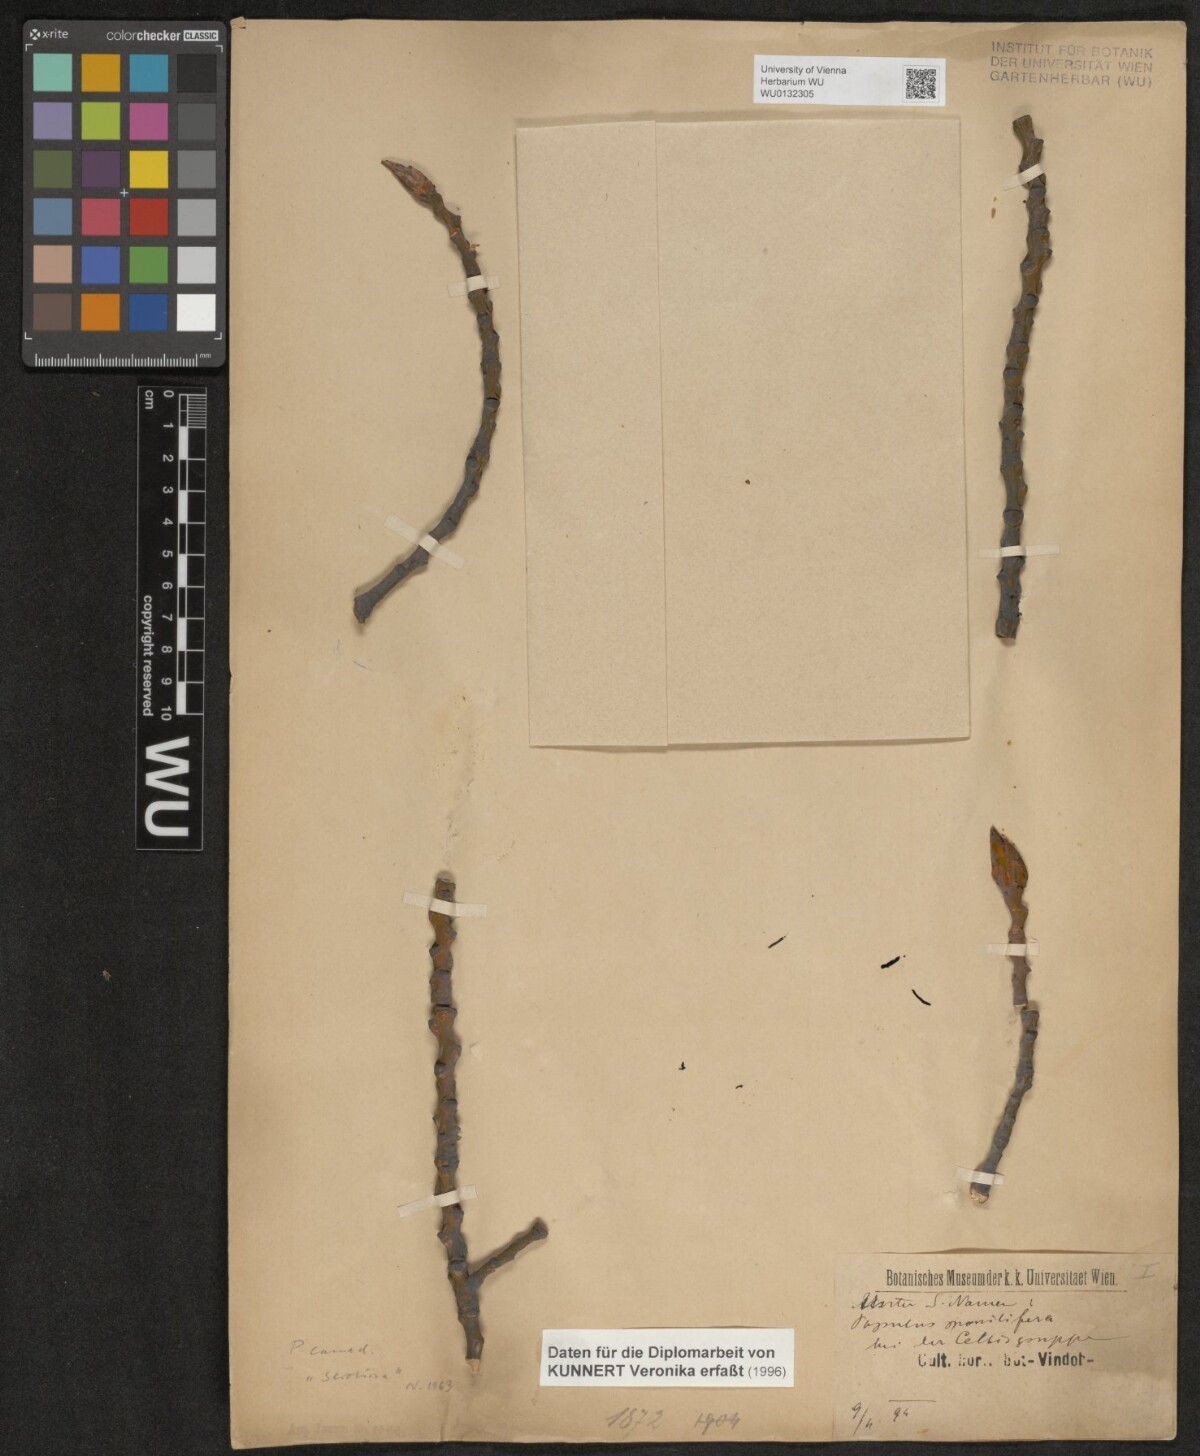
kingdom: Plantae
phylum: Tracheophyta
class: Magnoliopsida
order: Malpighiales
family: Salicaceae
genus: Populus
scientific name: Populus canadensis
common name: Carolina poplar
